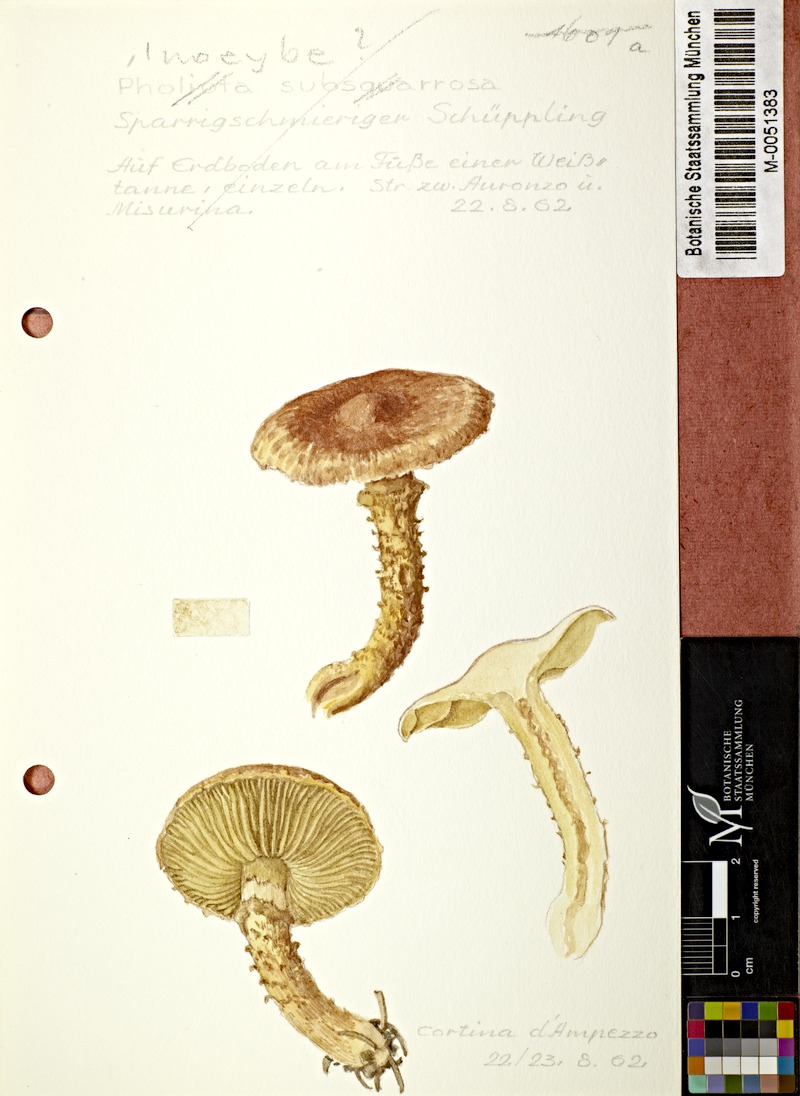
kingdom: Fungi
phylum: Basidiomycota
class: Agaricomycetes
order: Agaricales
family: Inocybaceae
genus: Mallocybe
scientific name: Mallocybe terrigena
